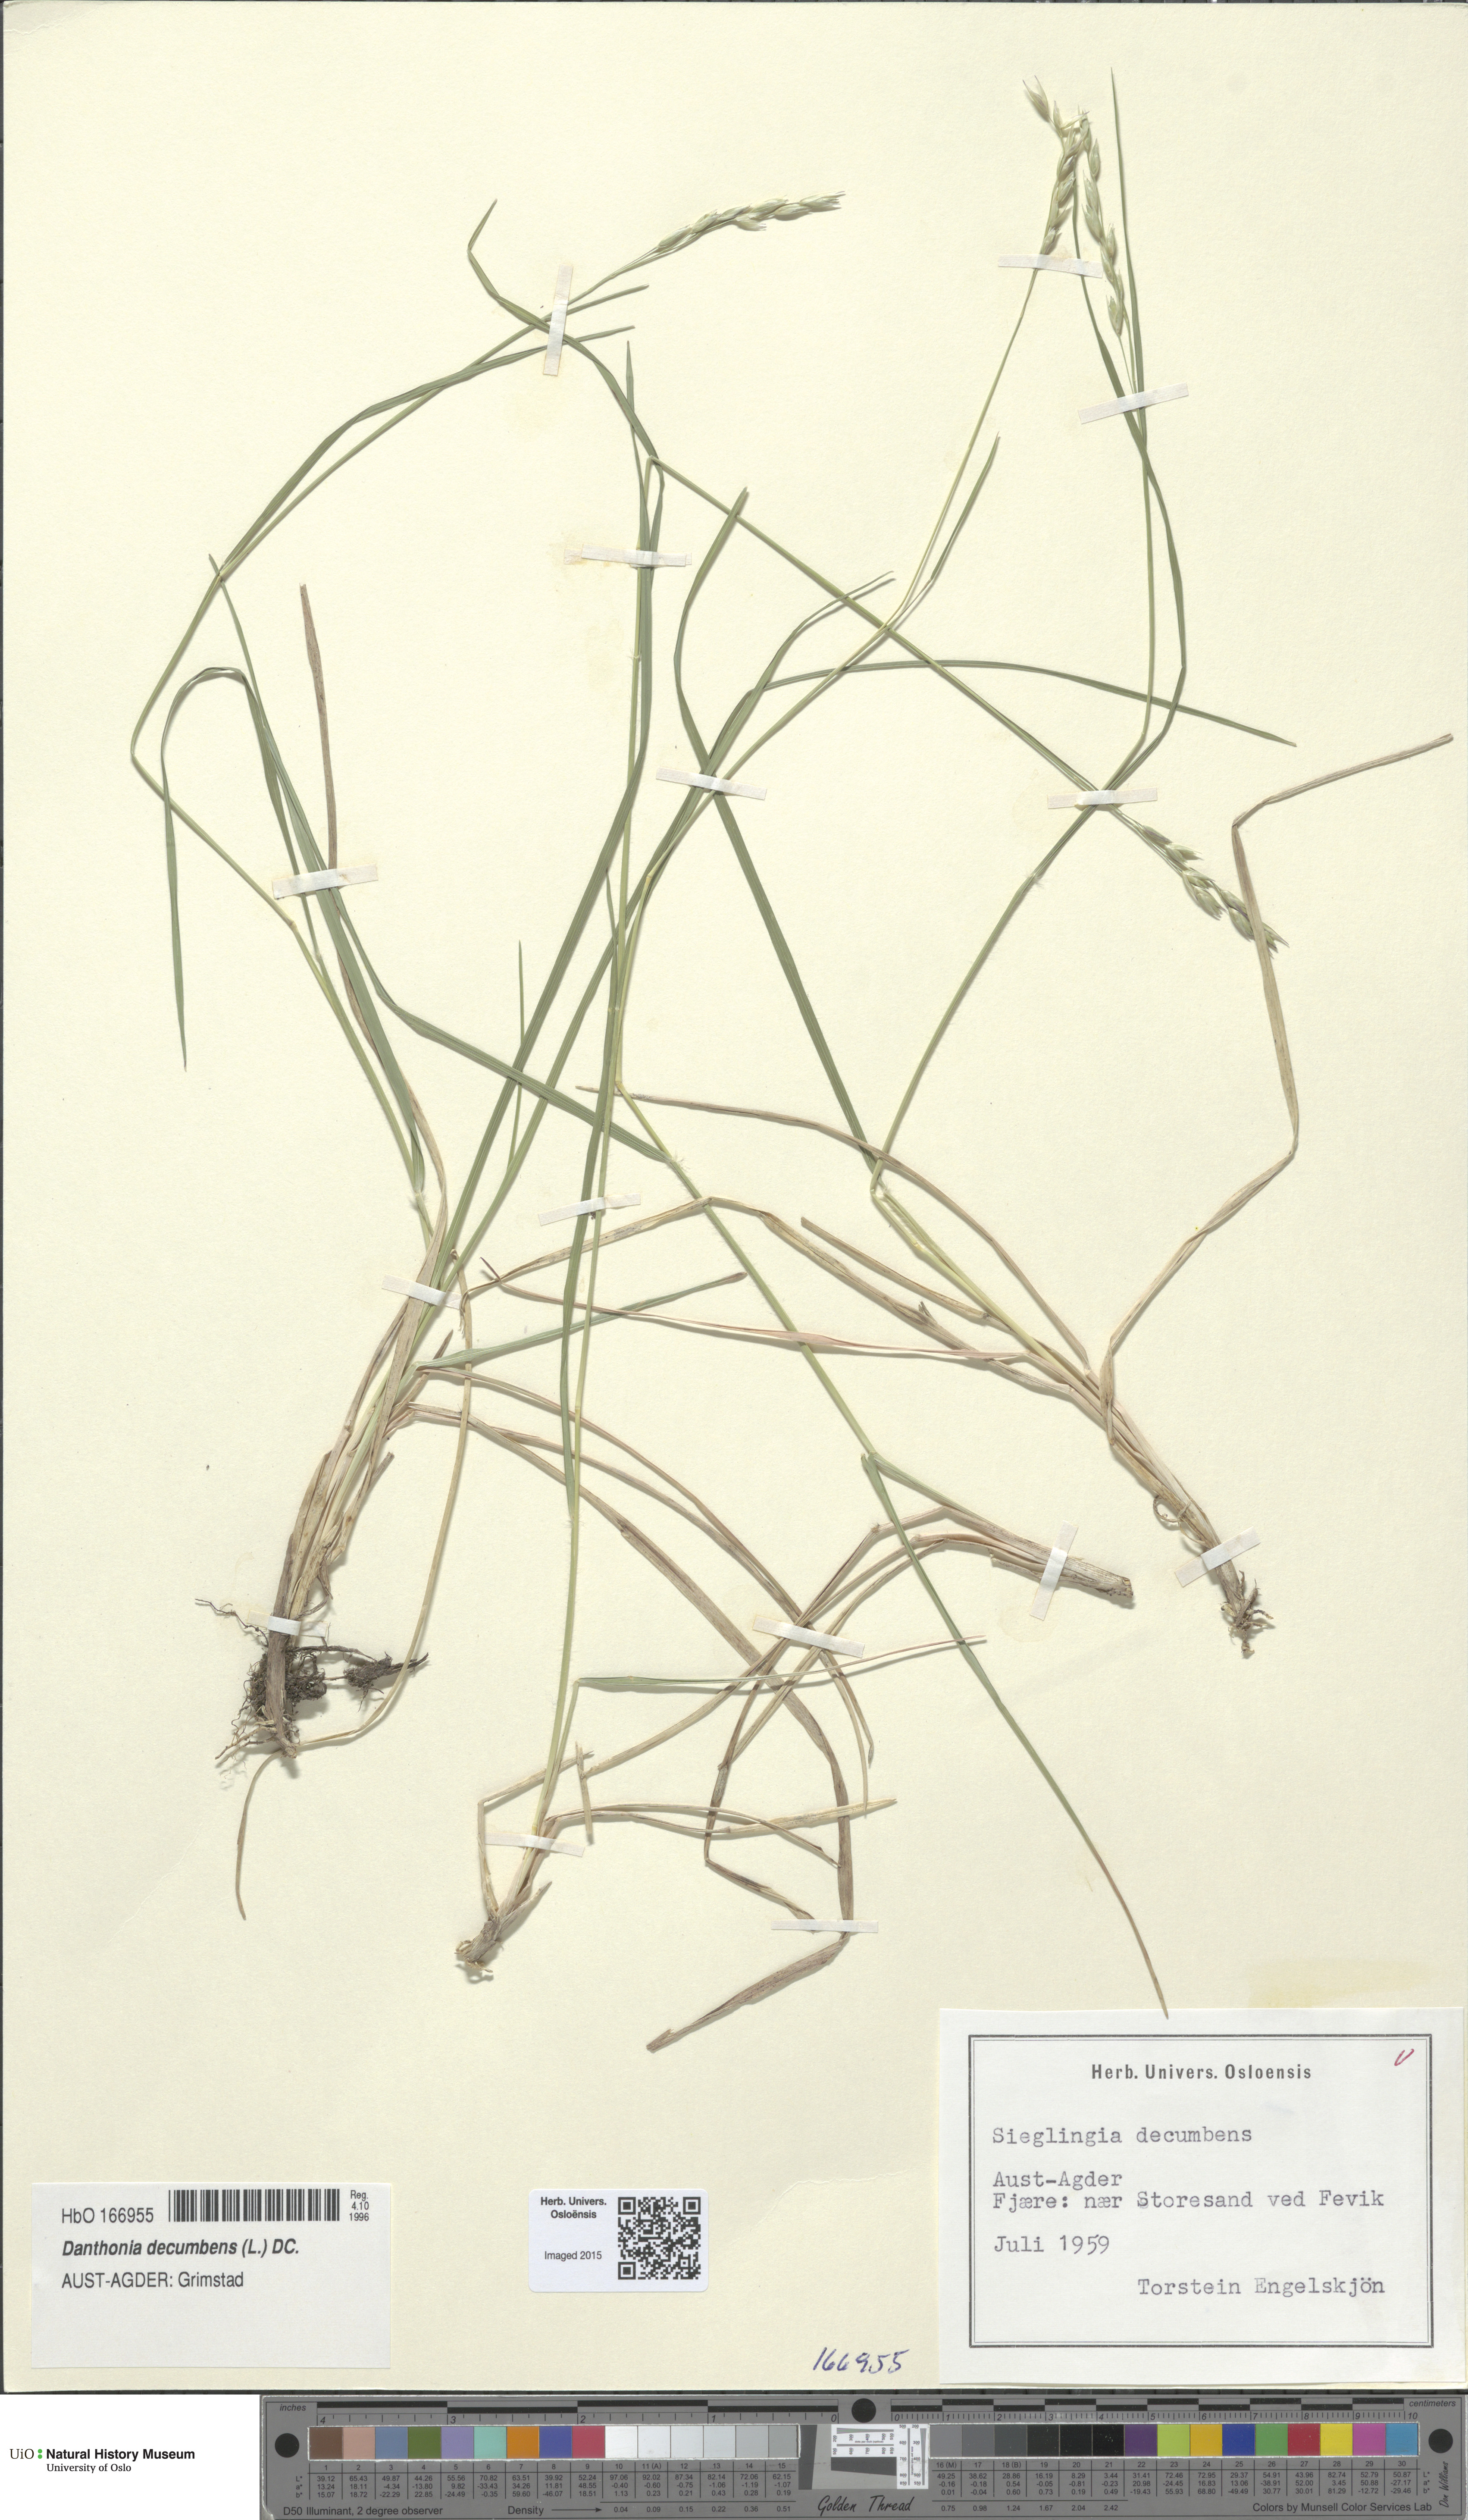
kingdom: Plantae
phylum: Tracheophyta
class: Liliopsida
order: Poales
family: Poaceae
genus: Danthonia
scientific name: Danthonia decumbens
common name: Common heathgrass
